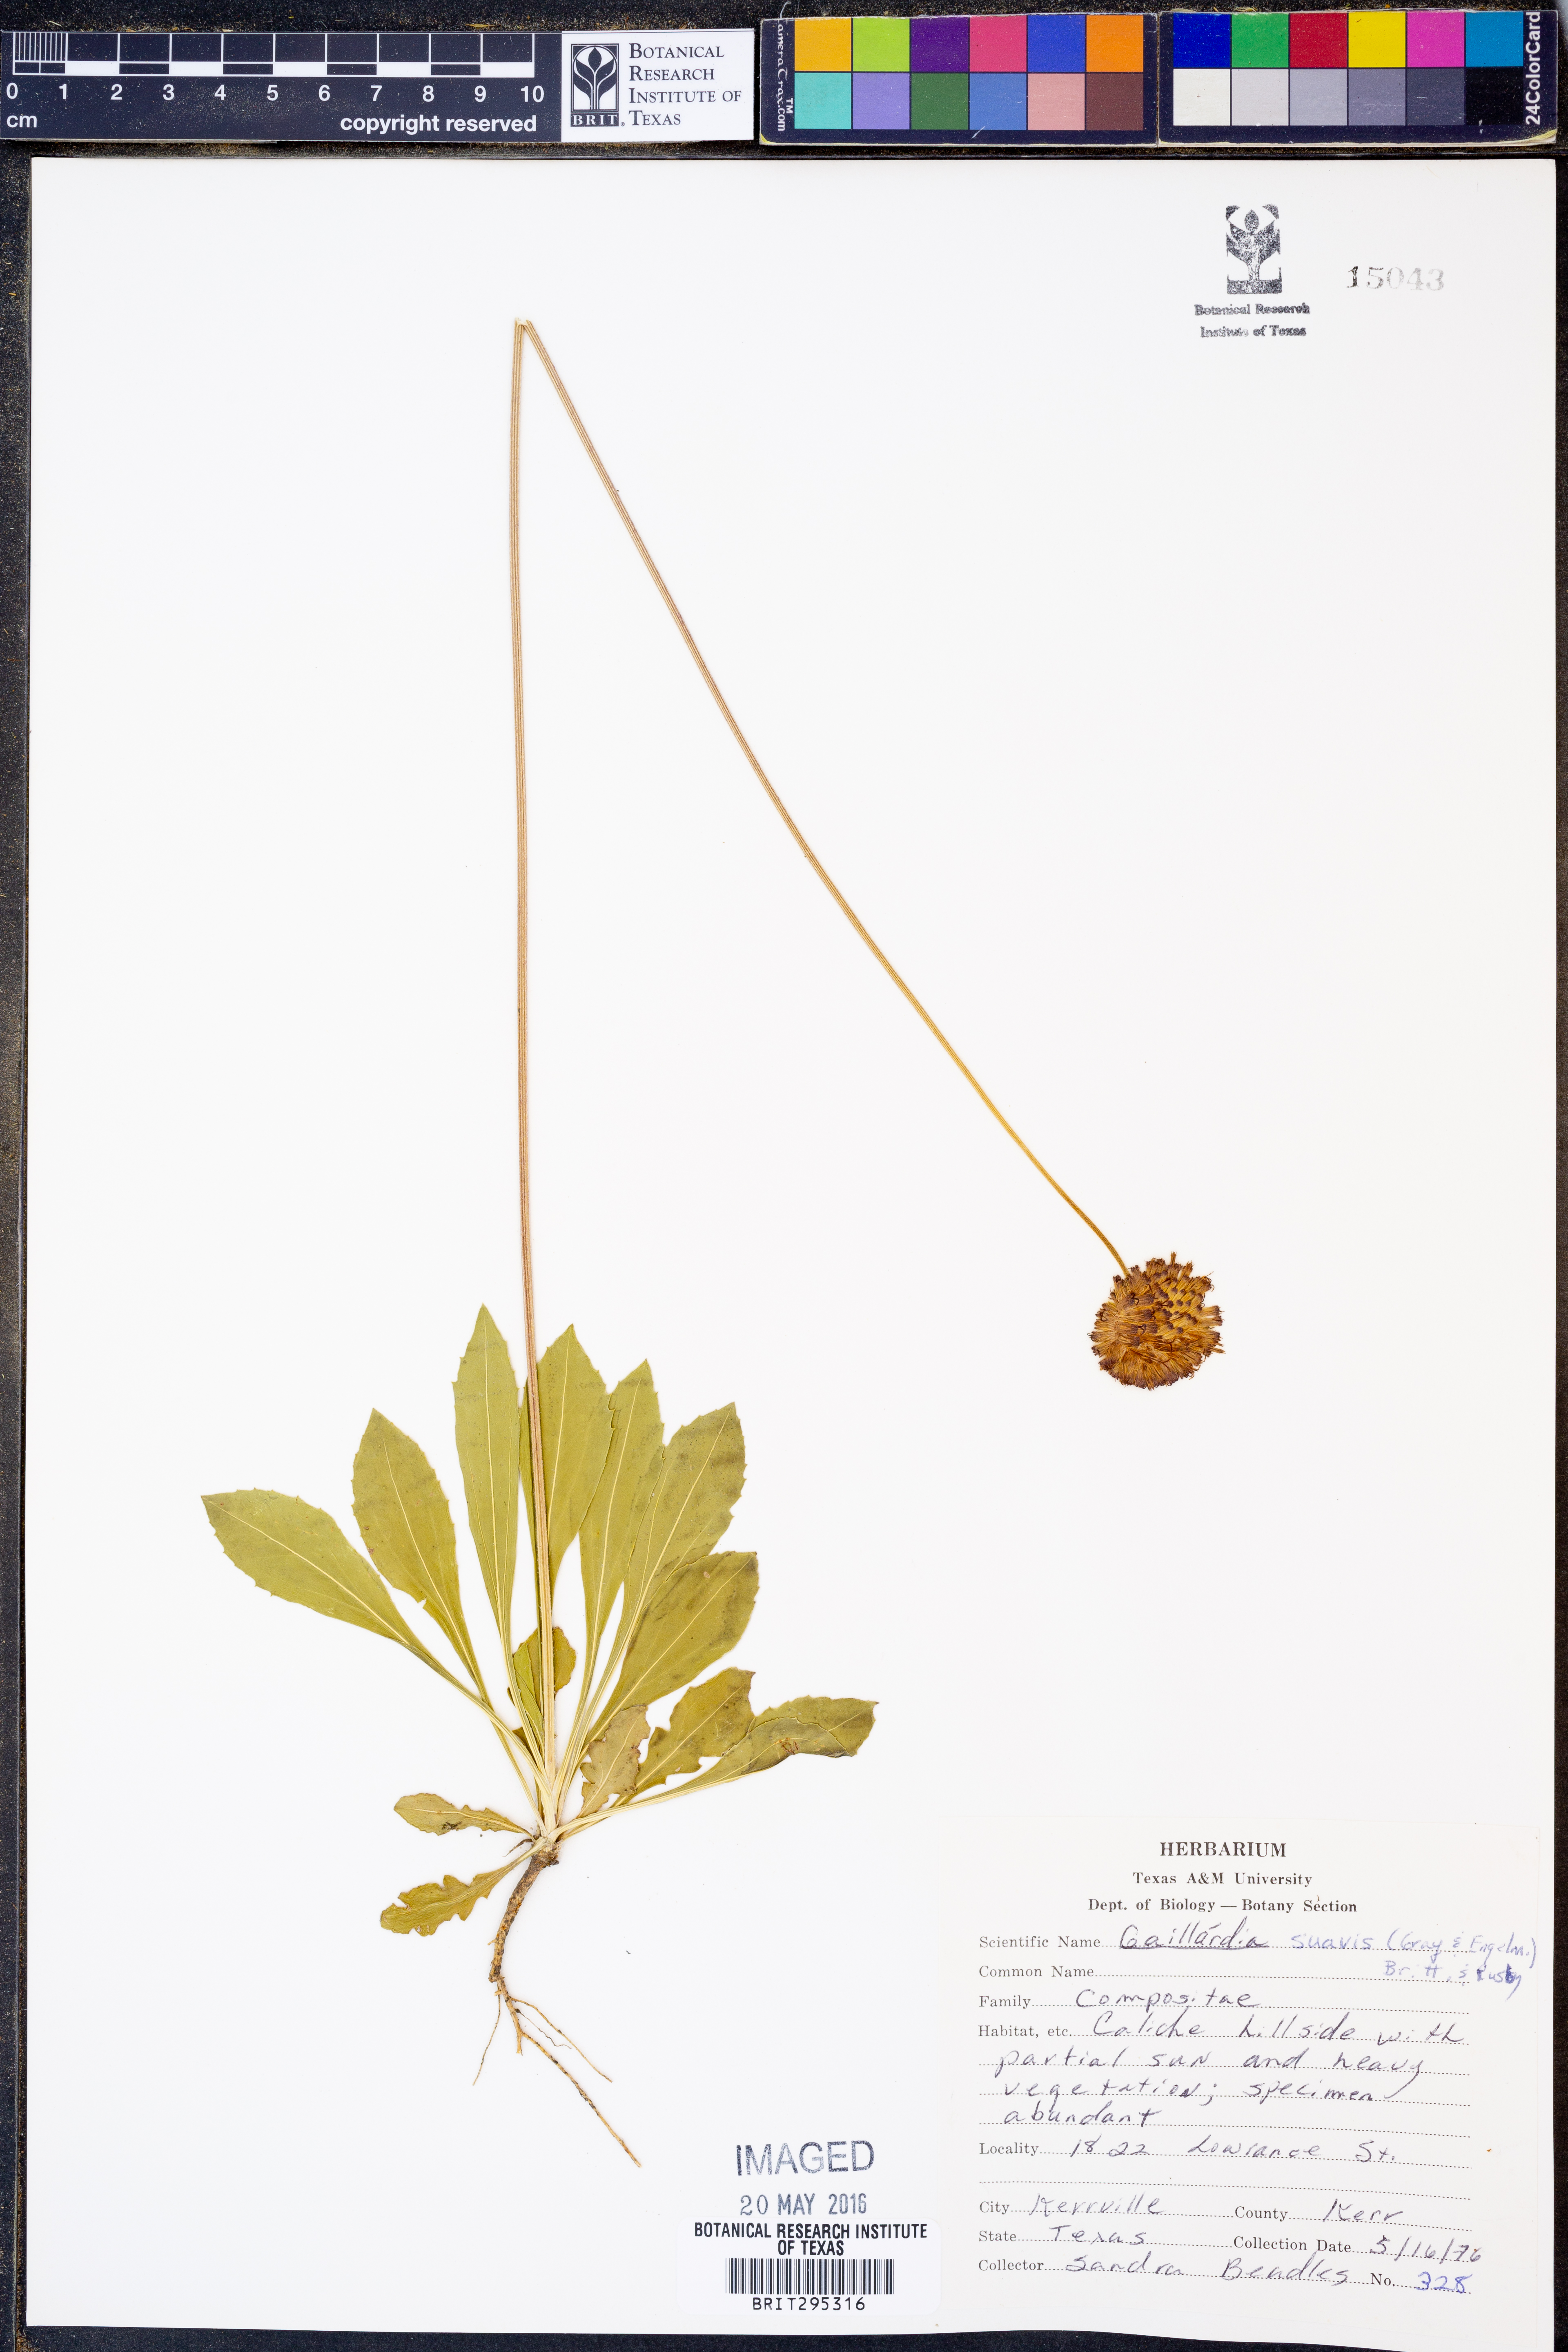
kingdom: Plantae
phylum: Tracheophyta
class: Magnoliopsida
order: Asterales
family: Asteraceae
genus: Gaillardia
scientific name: Gaillardia suavis
